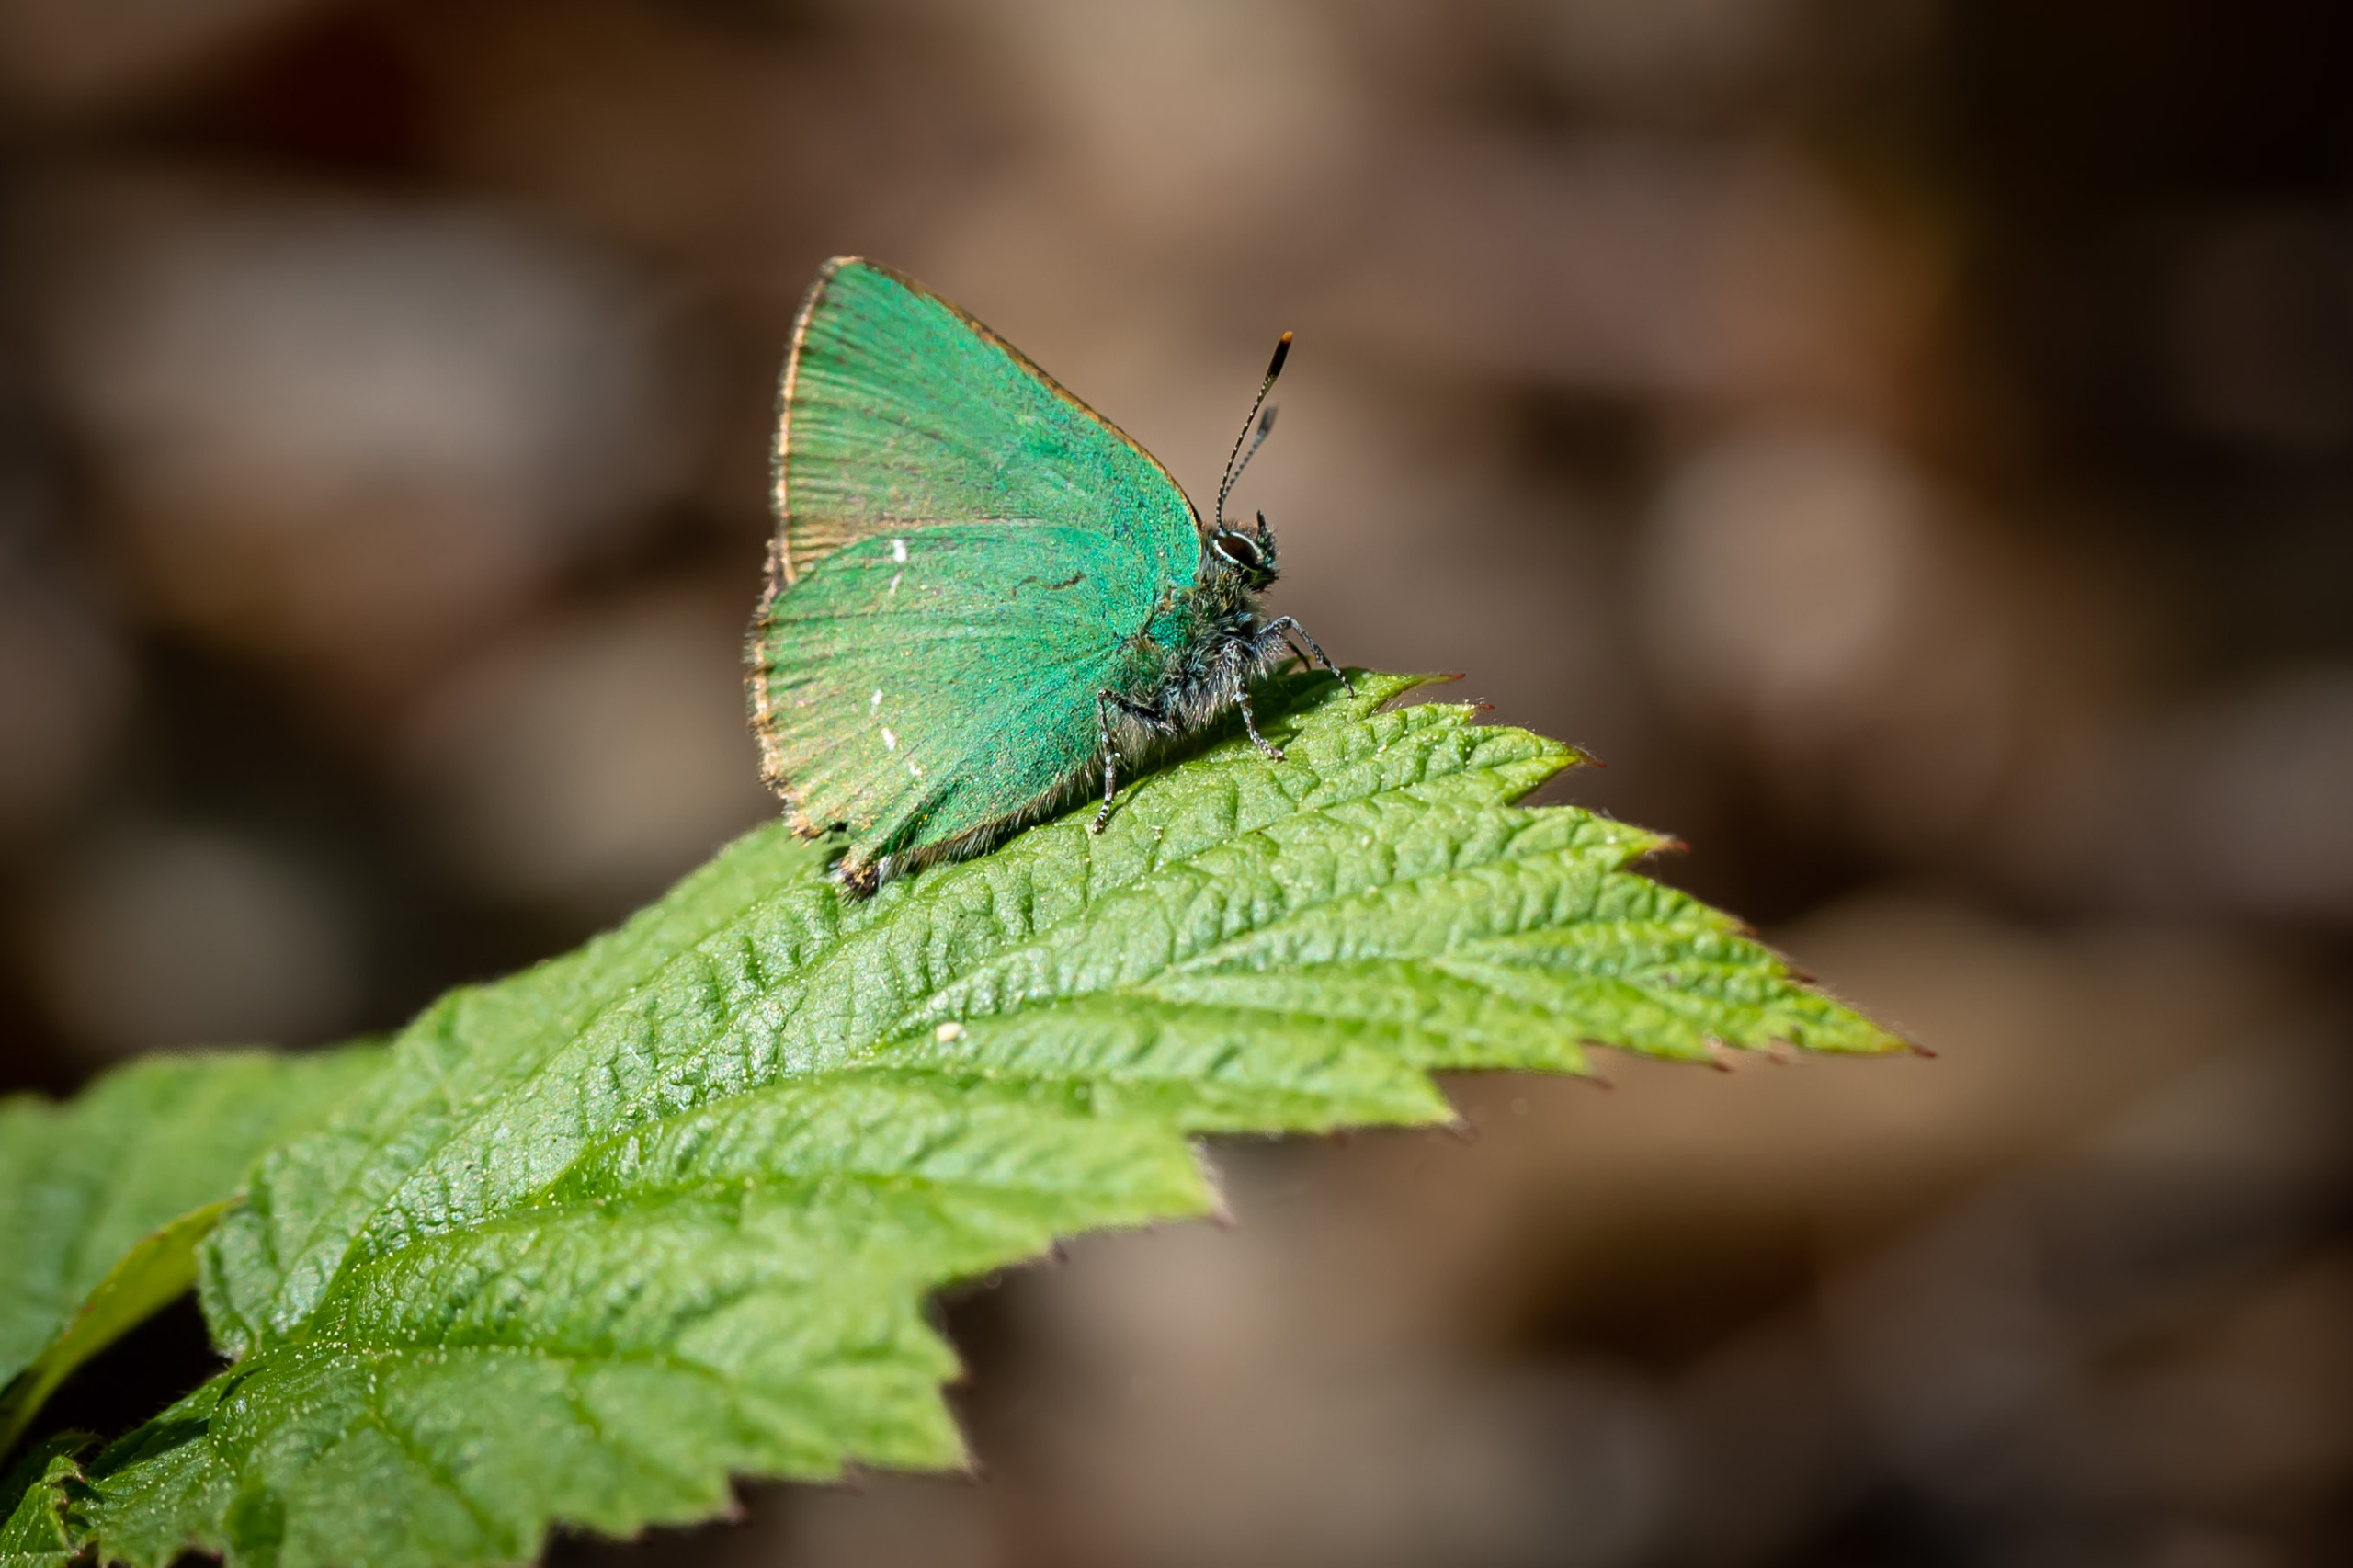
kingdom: Animalia
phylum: Arthropoda
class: Insecta
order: Lepidoptera
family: Lycaenidae
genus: Callophrys
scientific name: Callophrys rubi
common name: Grøn busksommerfugl
